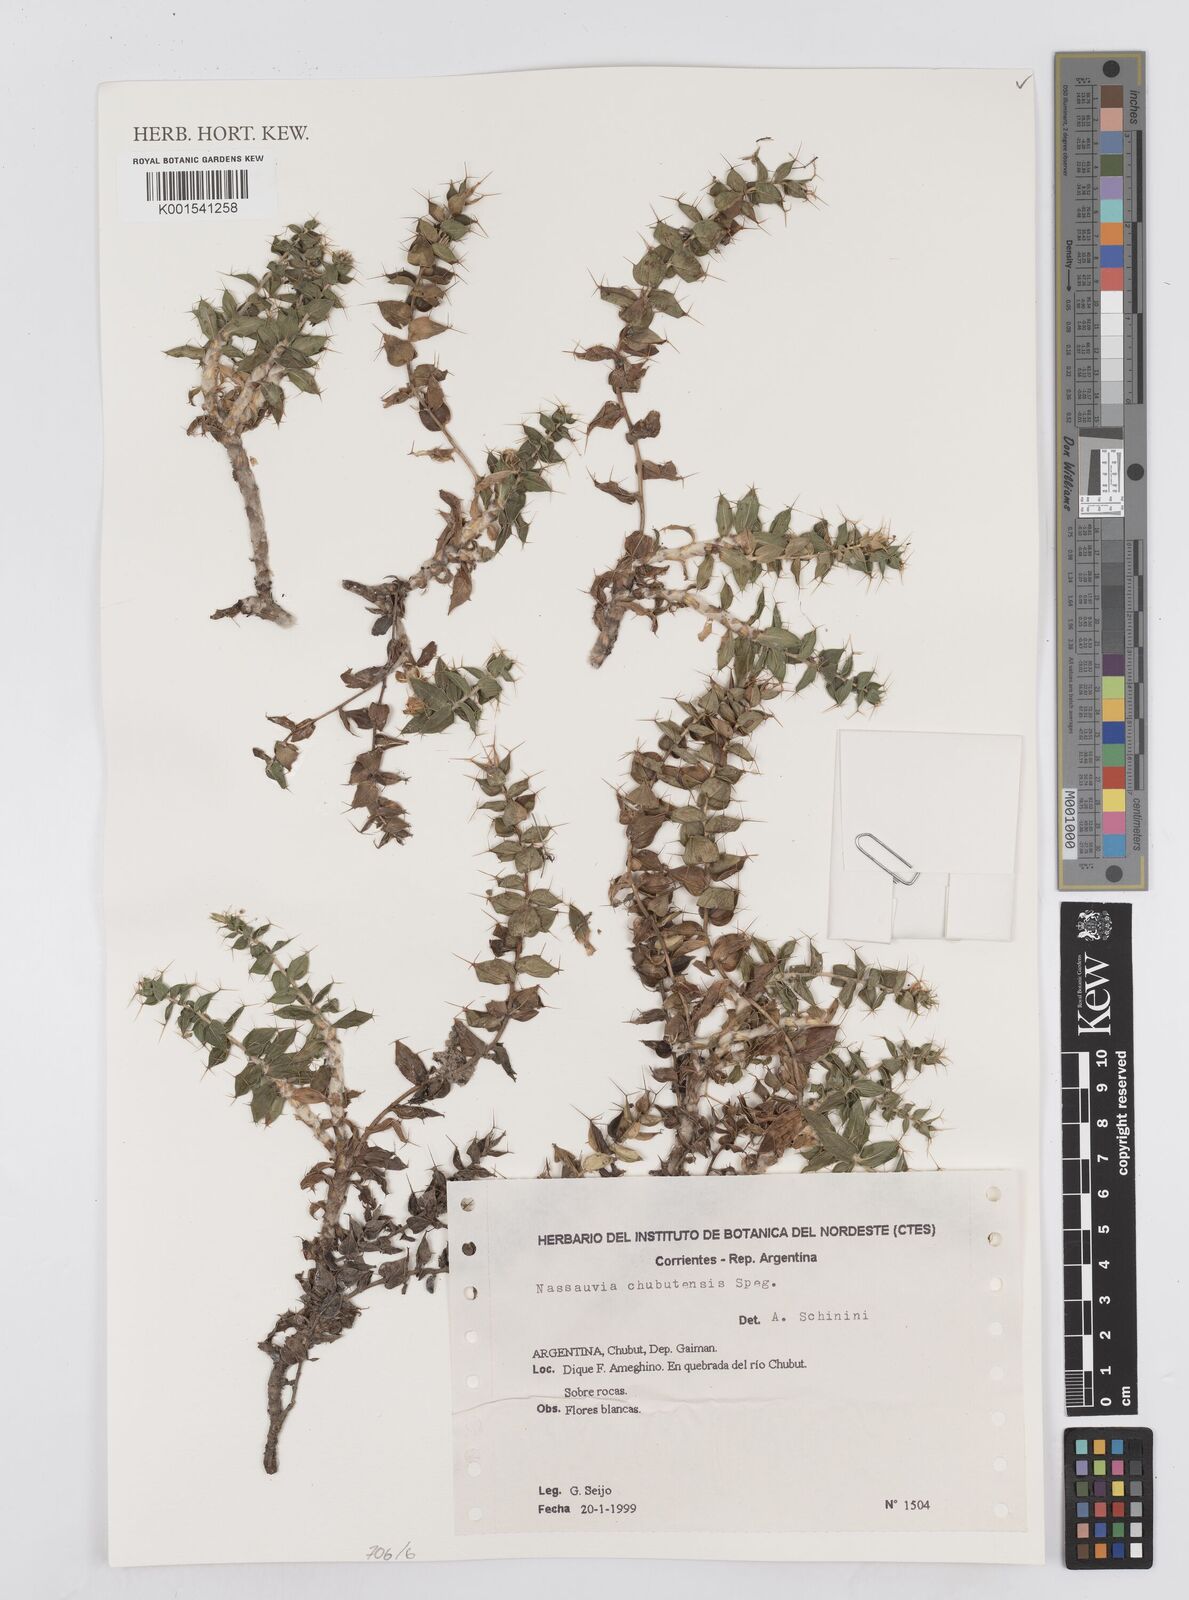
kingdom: Plantae
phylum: Tracheophyta
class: Magnoliopsida
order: Asterales
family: Asteraceae
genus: Nassauvia
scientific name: Nassauvia chubutensis
